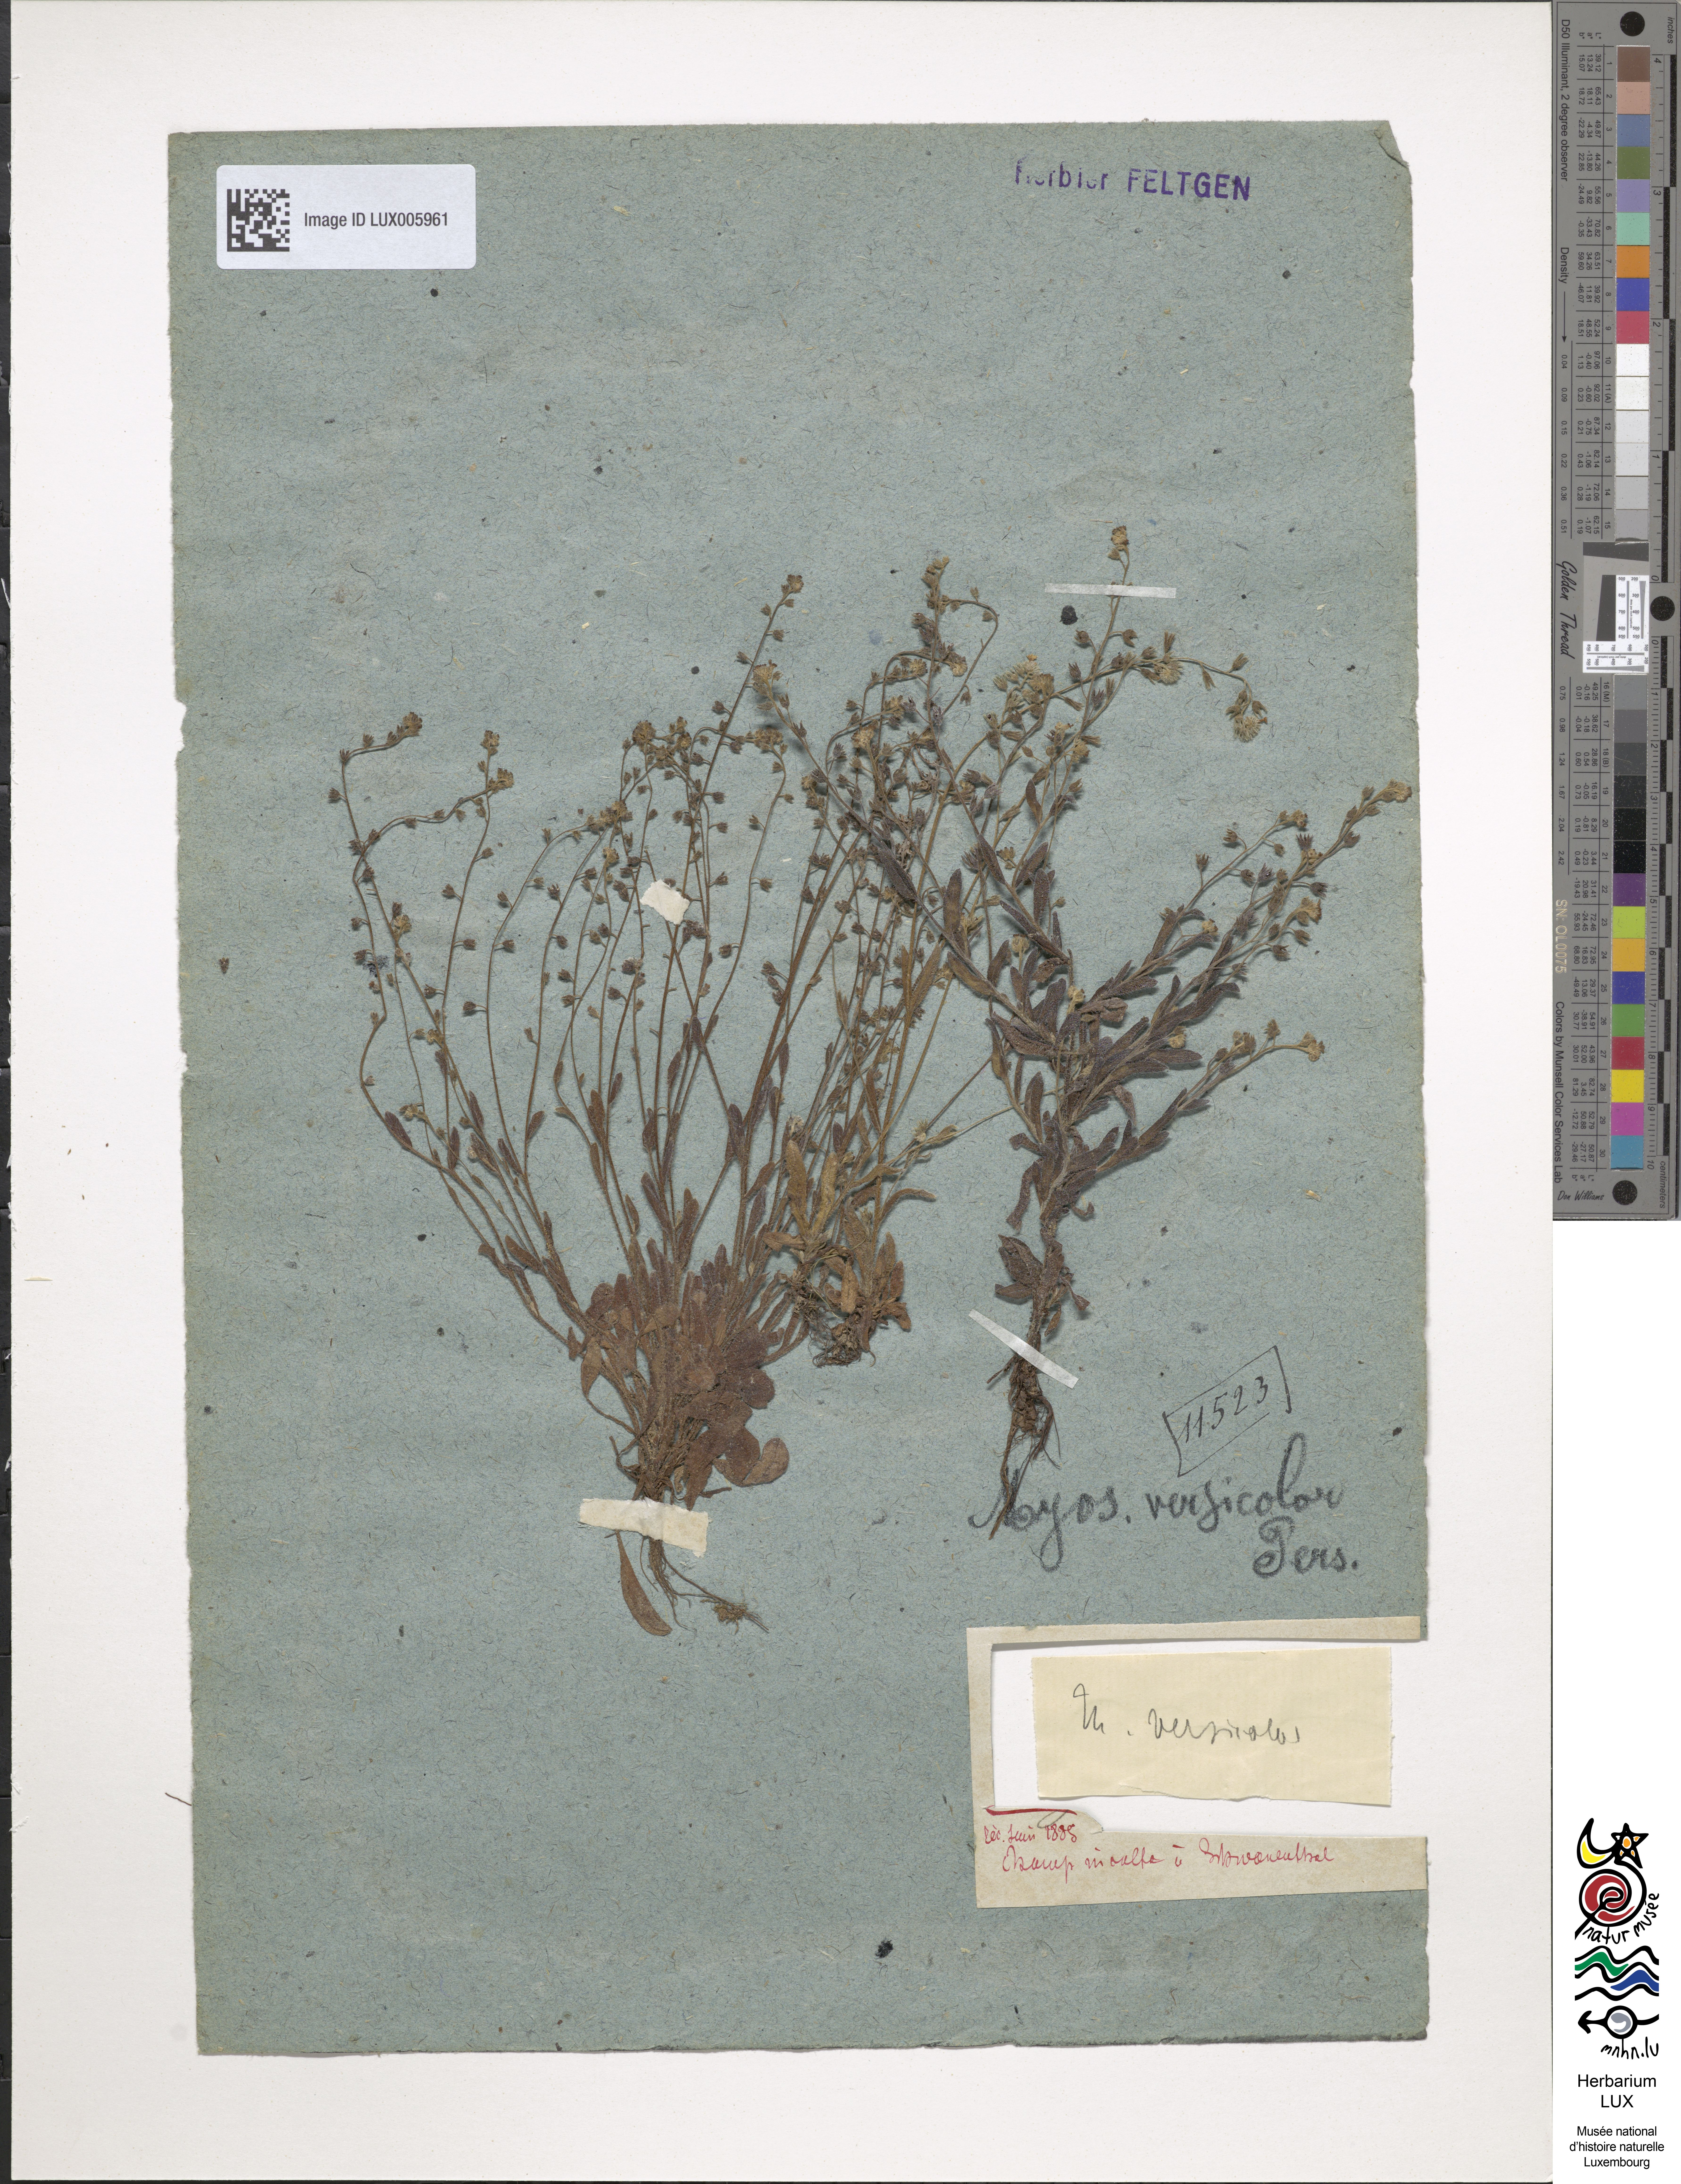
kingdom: Plantae
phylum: Tracheophyta
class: Magnoliopsida
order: Boraginales
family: Boraginaceae
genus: Myosotis
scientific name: Myosotis discolor
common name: Changing forget-me-not
